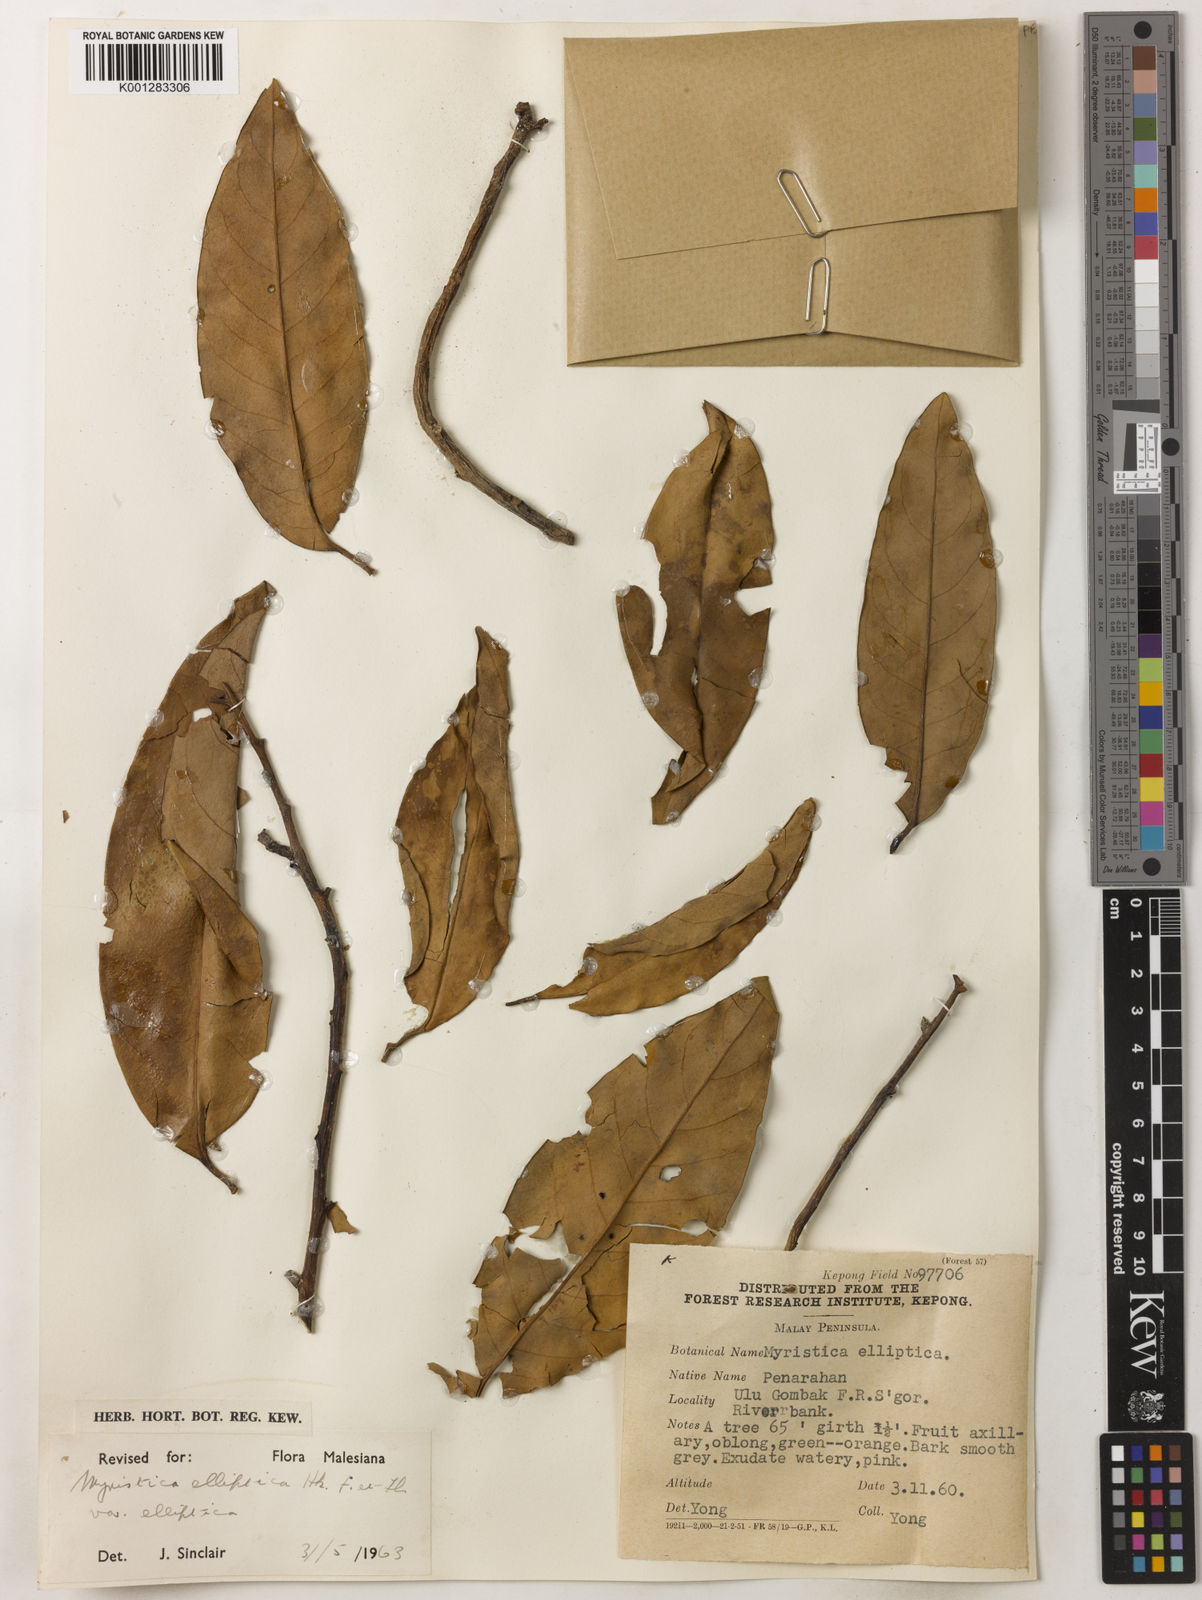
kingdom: Plantae
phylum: Tracheophyta
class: Magnoliopsida
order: Magnoliales
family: Myristicaceae
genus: Myristica
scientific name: Myristica elliptica
